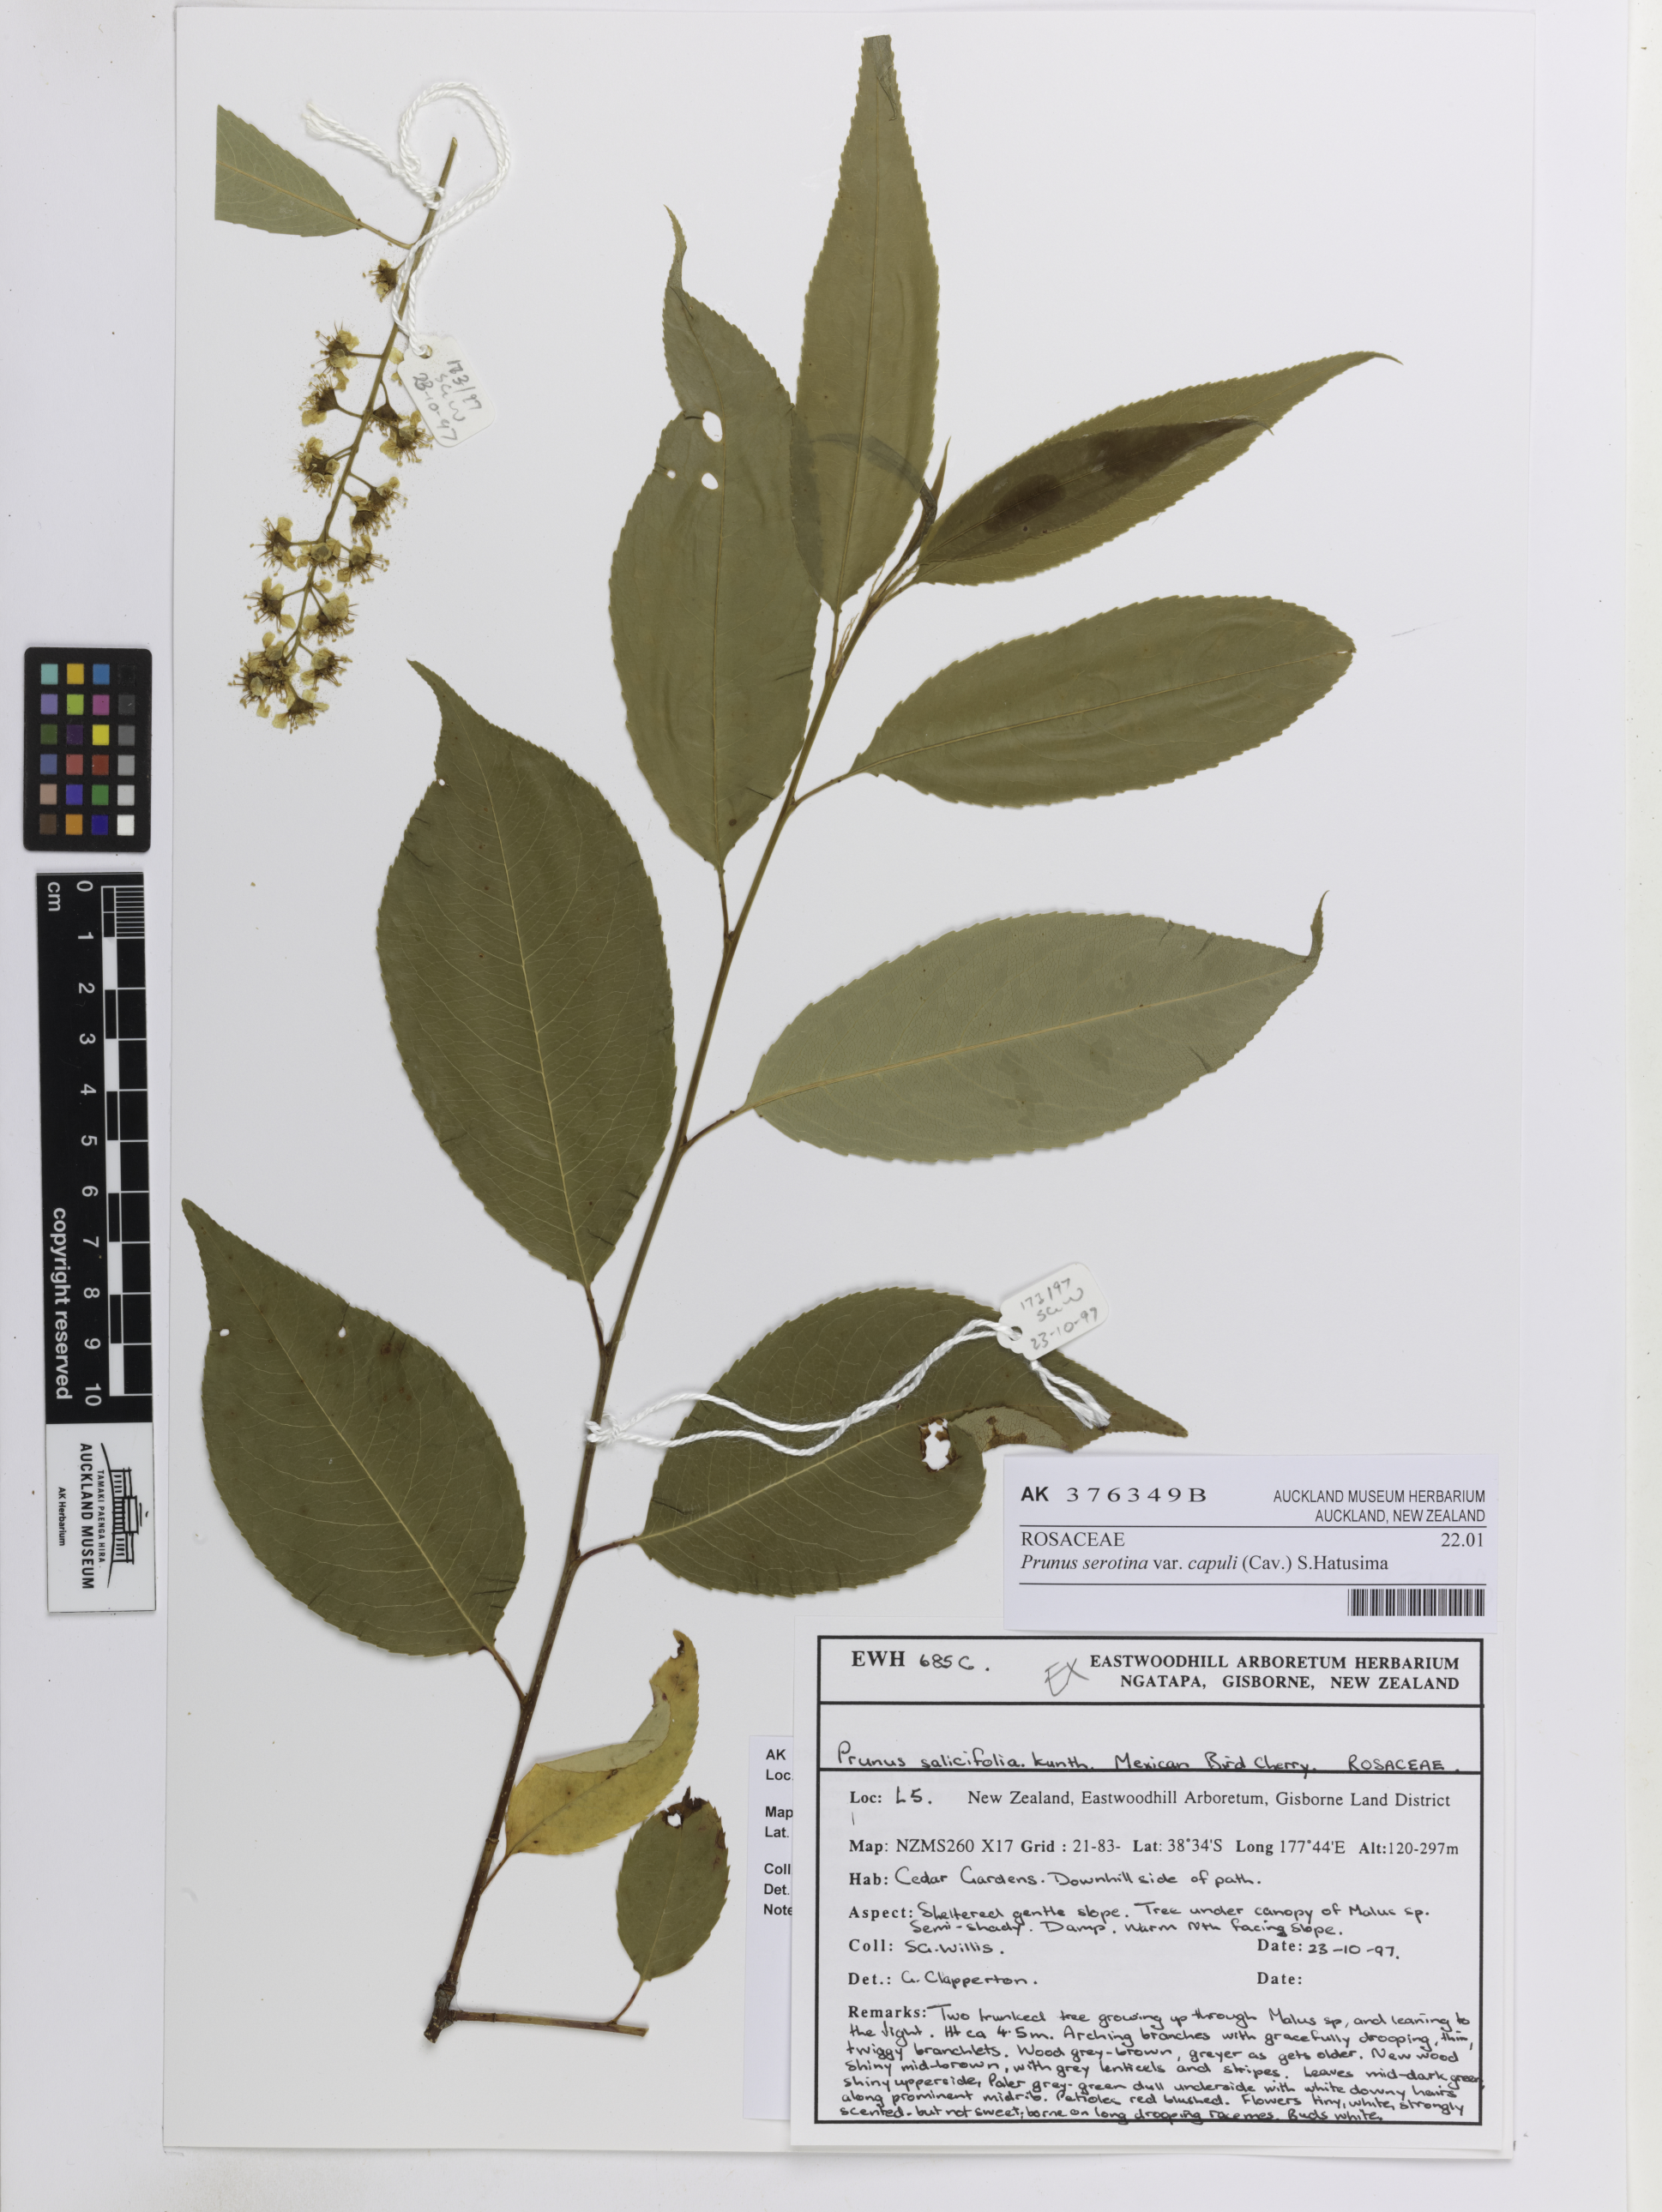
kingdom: Plantae
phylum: Tracheophyta
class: Magnoliopsida
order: Rosales
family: Rosaceae
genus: Prunus
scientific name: Prunus serotina
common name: Black cherry
